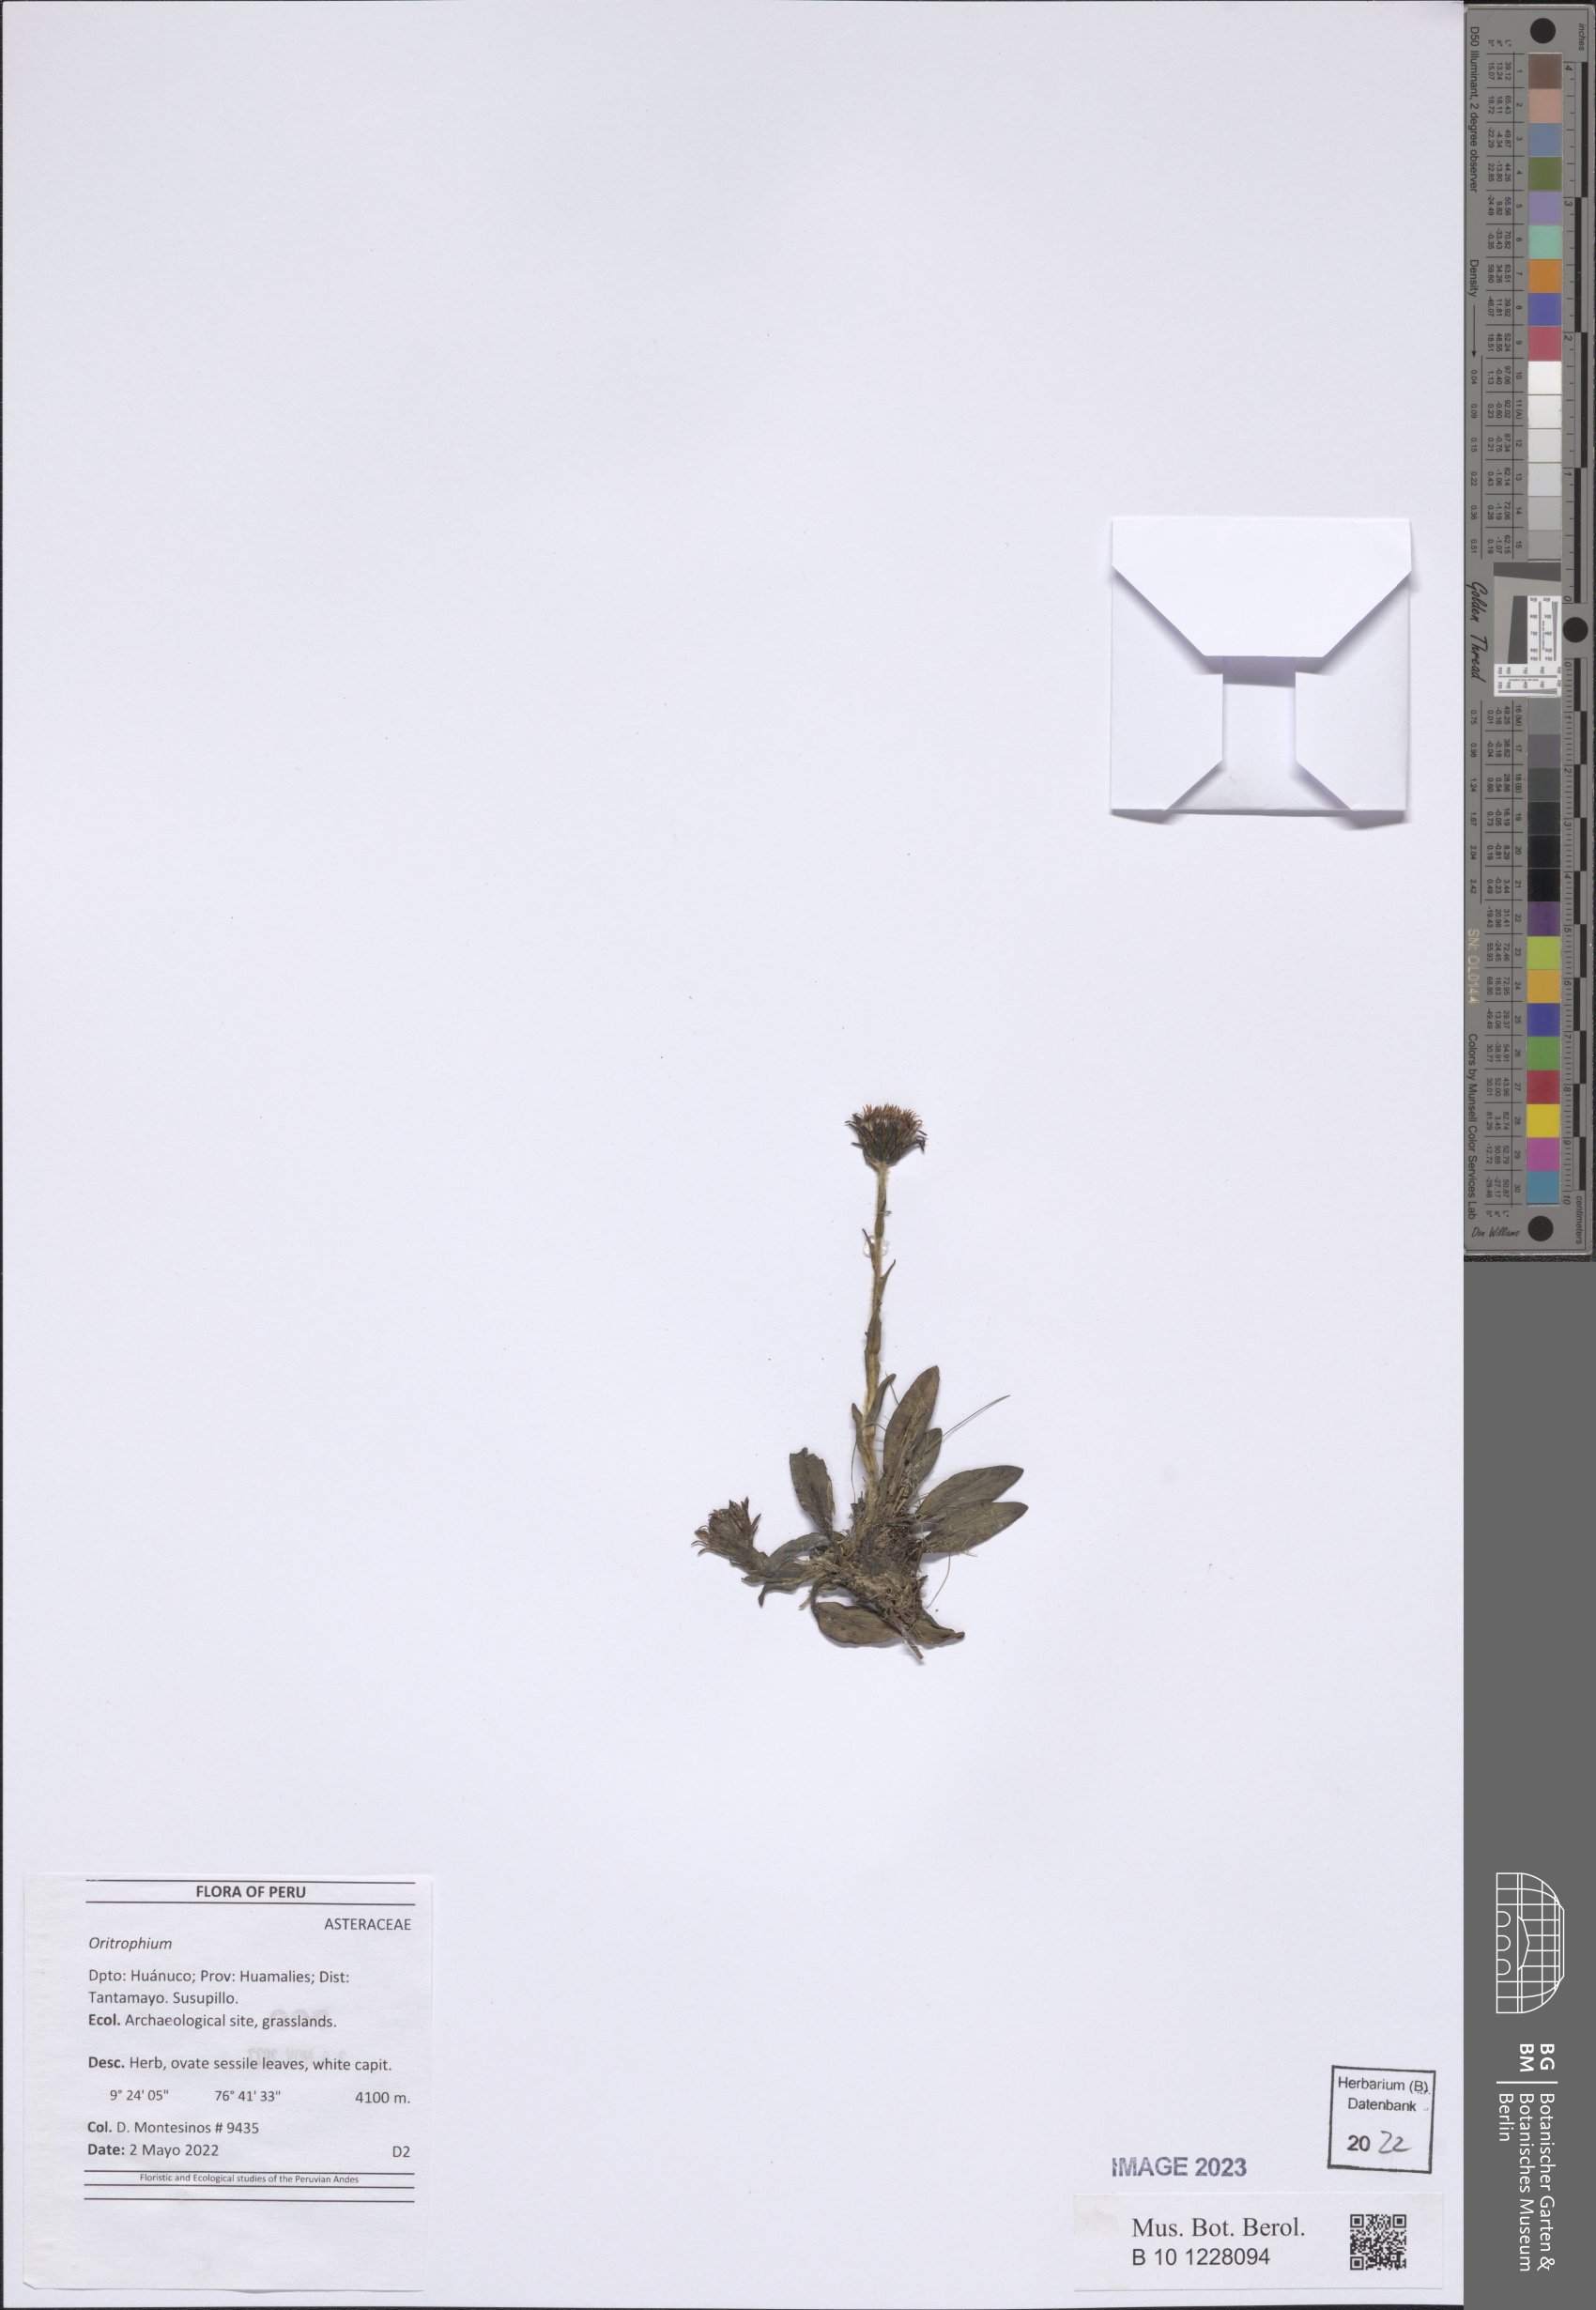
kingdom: Plantae
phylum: Tracheophyta
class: Magnoliopsida
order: Asterales
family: Asteraceae
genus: Oritrophium
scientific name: Oritrophium
